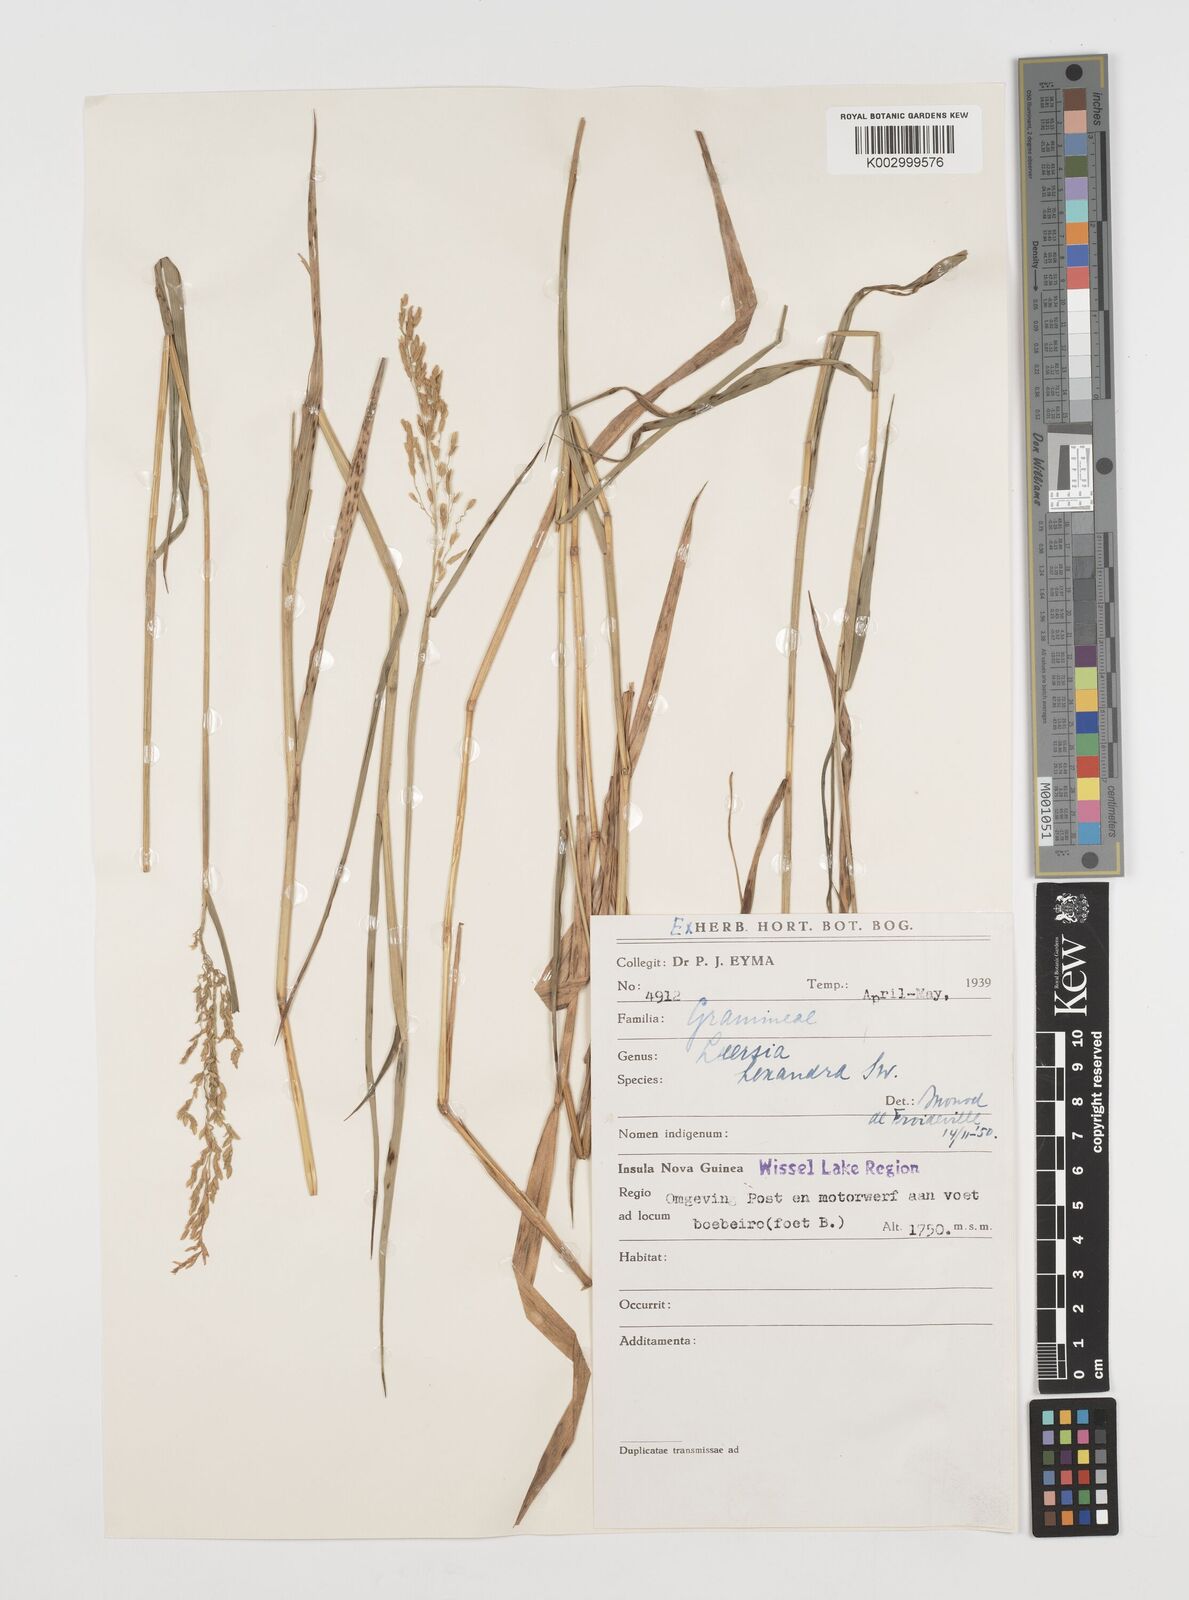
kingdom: Plantae
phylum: Tracheophyta
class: Liliopsida
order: Poales
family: Poaceae
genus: Leersia
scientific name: Leersia hexandra
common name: Southern cut grass
